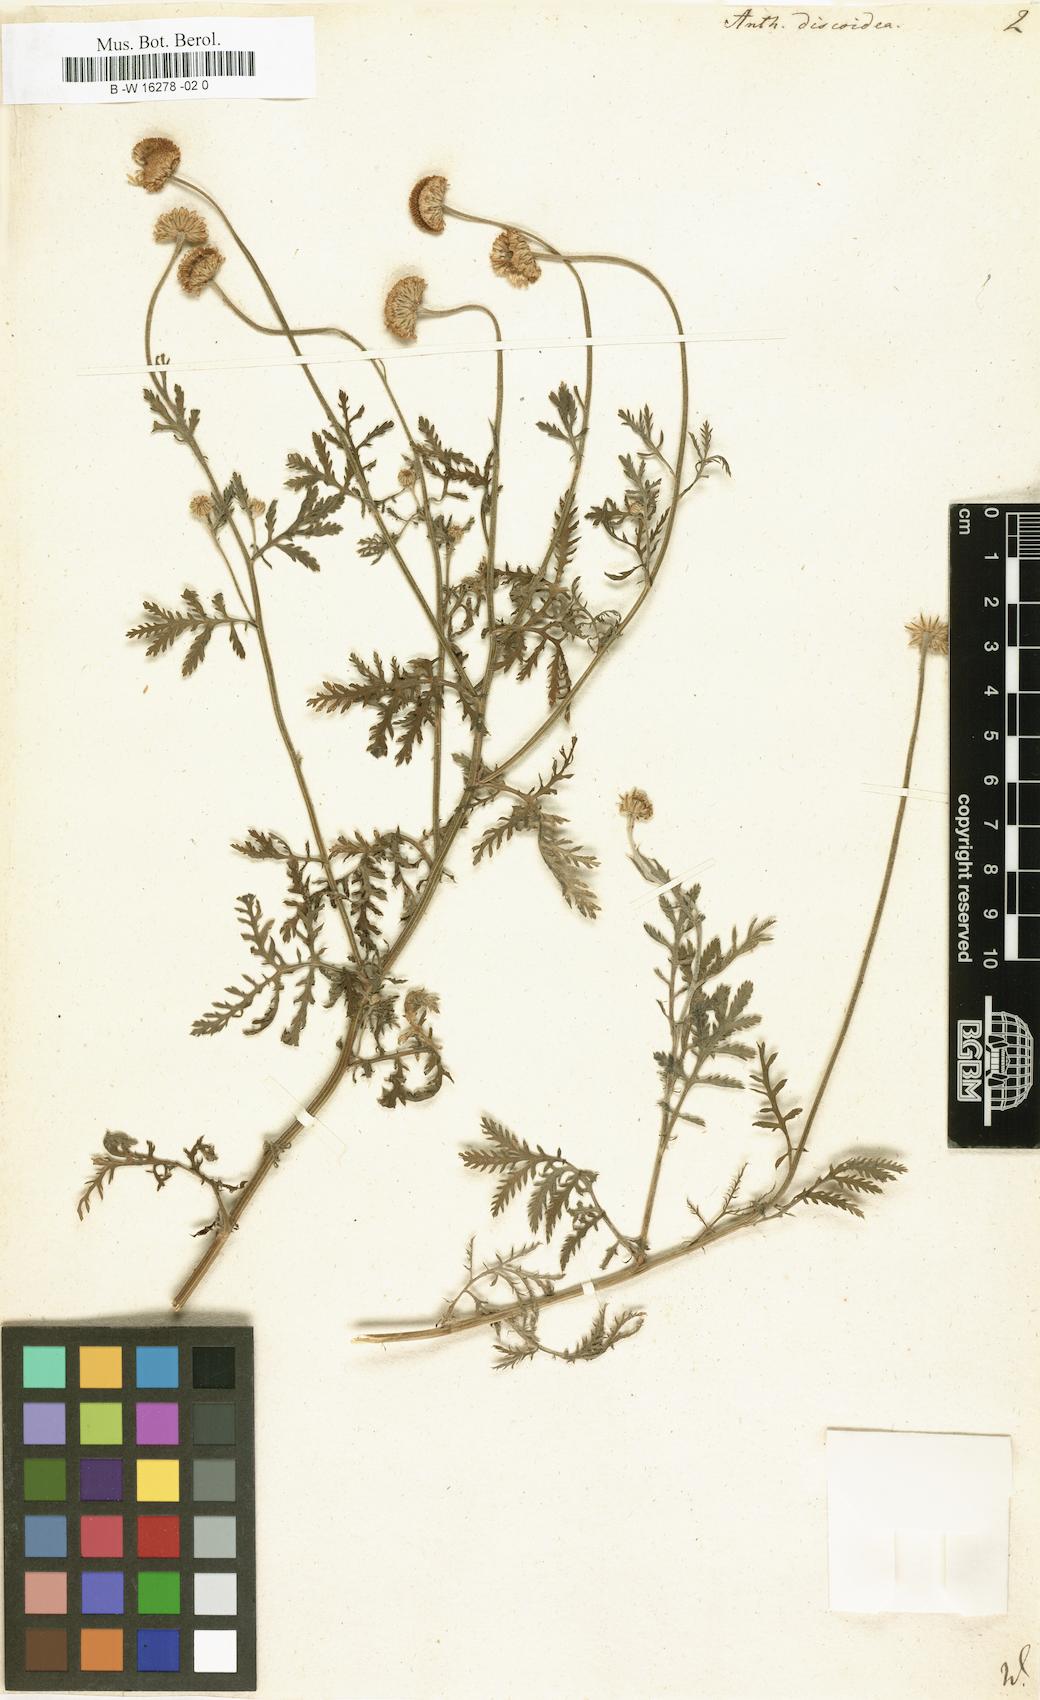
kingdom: Plantae
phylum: Tracheophyta
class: Magnoliopsida
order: Asterales
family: Asteraceae
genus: Cota
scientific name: Cota tinctoria
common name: Golden chamomile
